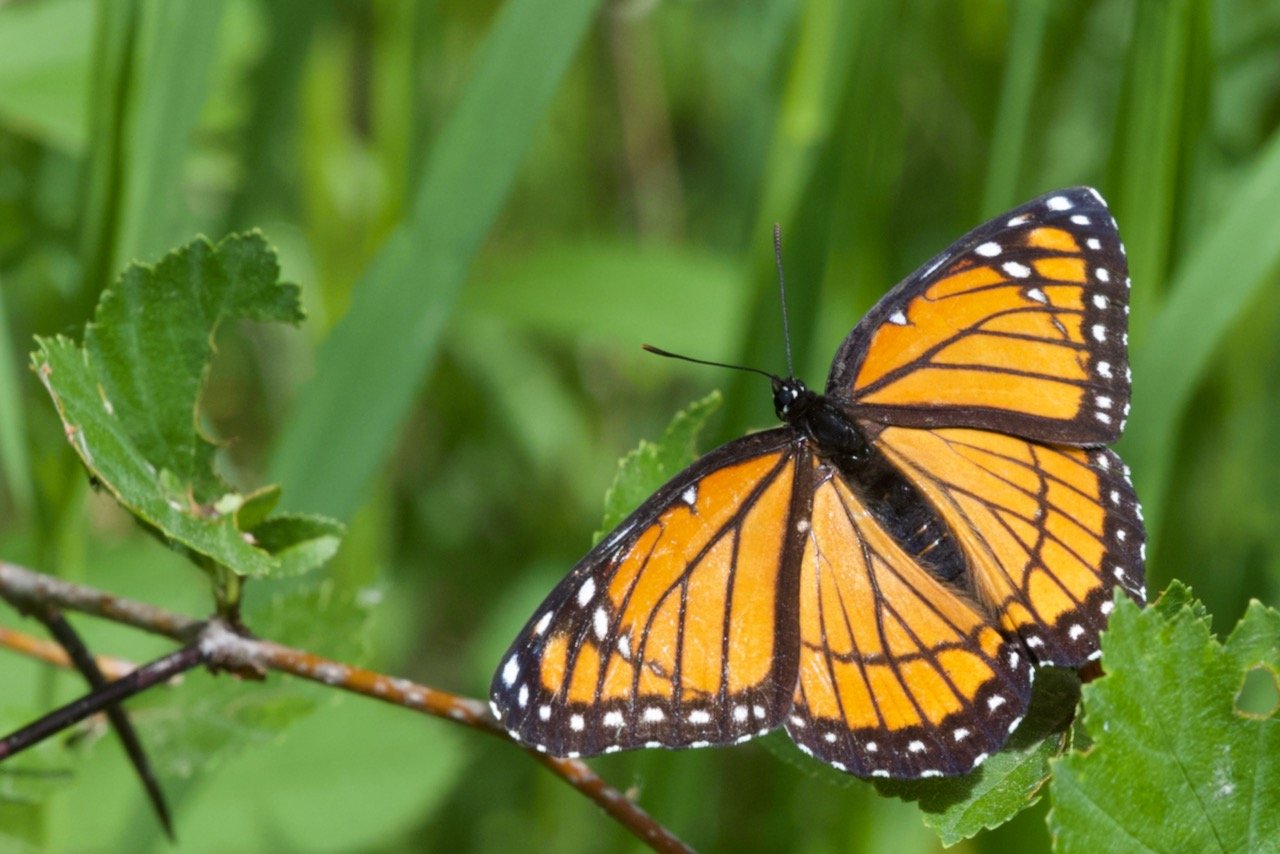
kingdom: Animalia
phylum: Arthropoda
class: Insecta
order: Lepidoptera
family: Nymphalidae
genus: Limenitis
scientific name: Limenitis archippus
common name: Viceroy
